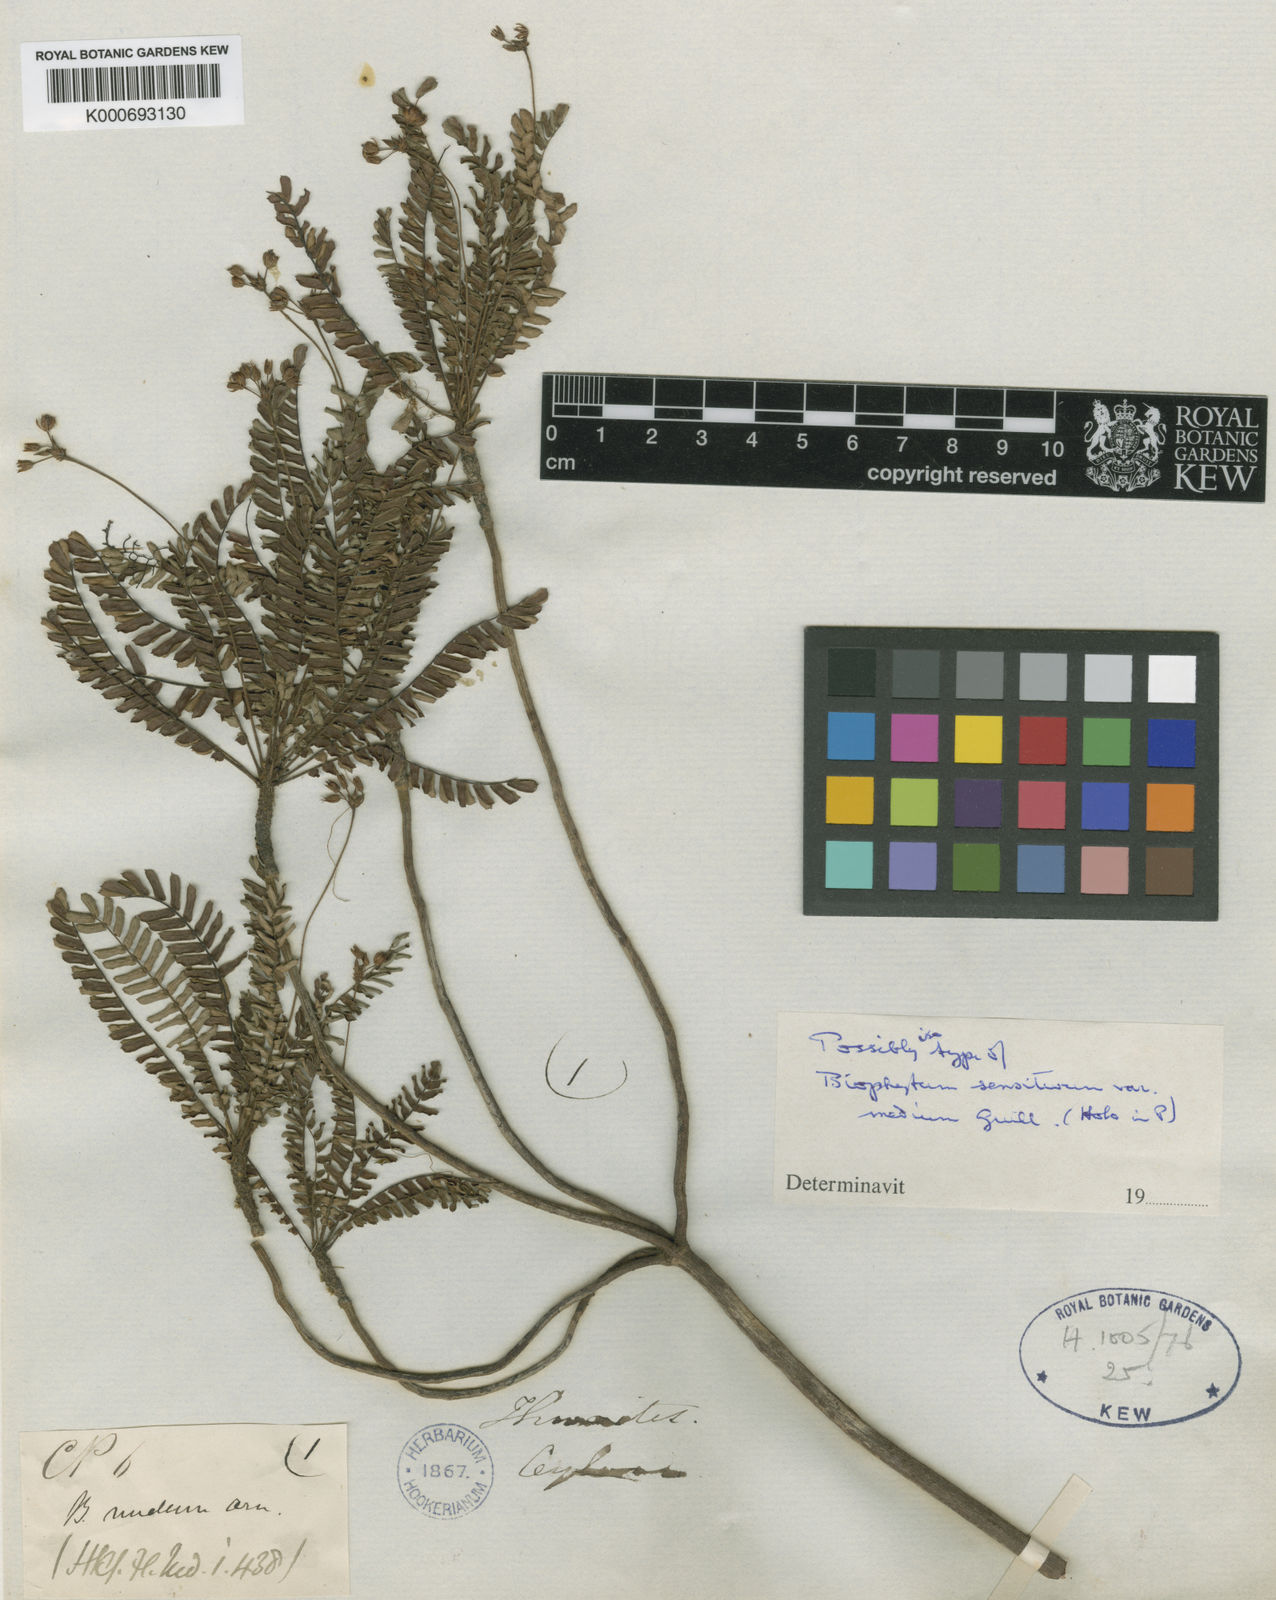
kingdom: Plantae
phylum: Tracheophyta
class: Magnoliopsida
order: Oxalidales
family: Oxalidaceae
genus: Biophytum
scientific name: Biophytum
